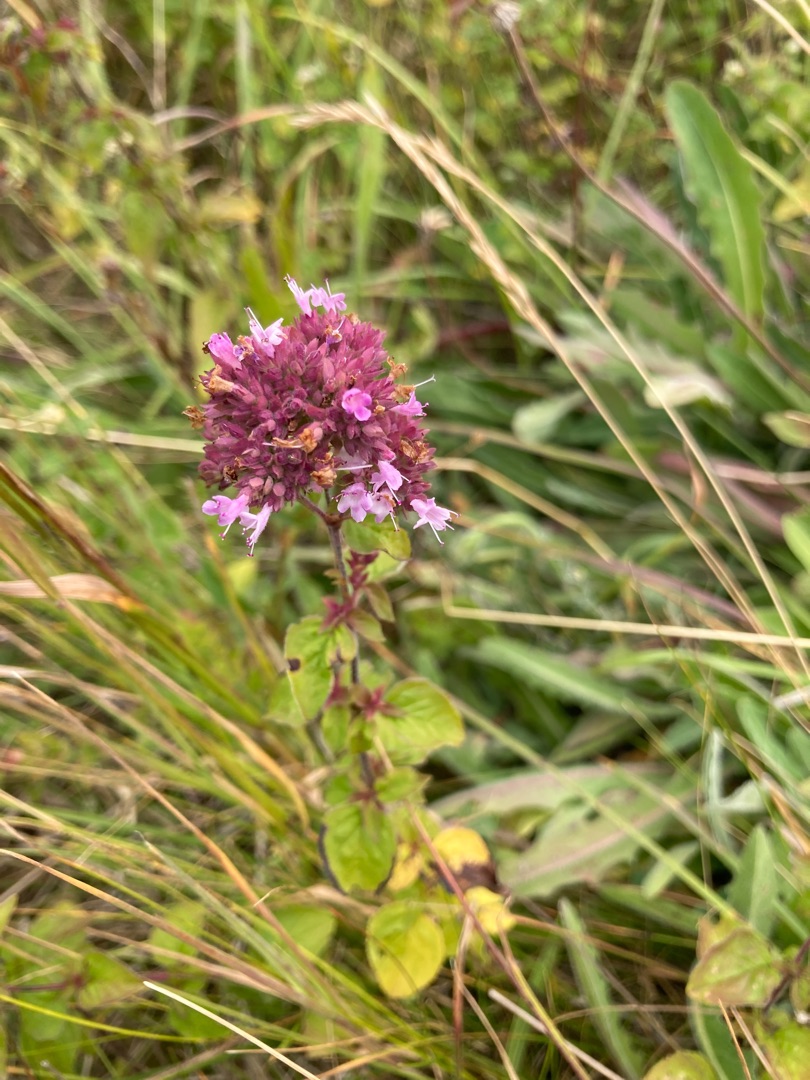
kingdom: Plantae
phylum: Tracheophyta
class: Magnoliopsida
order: Lamiales
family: Lamiaceae
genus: Origanum
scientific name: Origanum vulgare
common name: Merian
